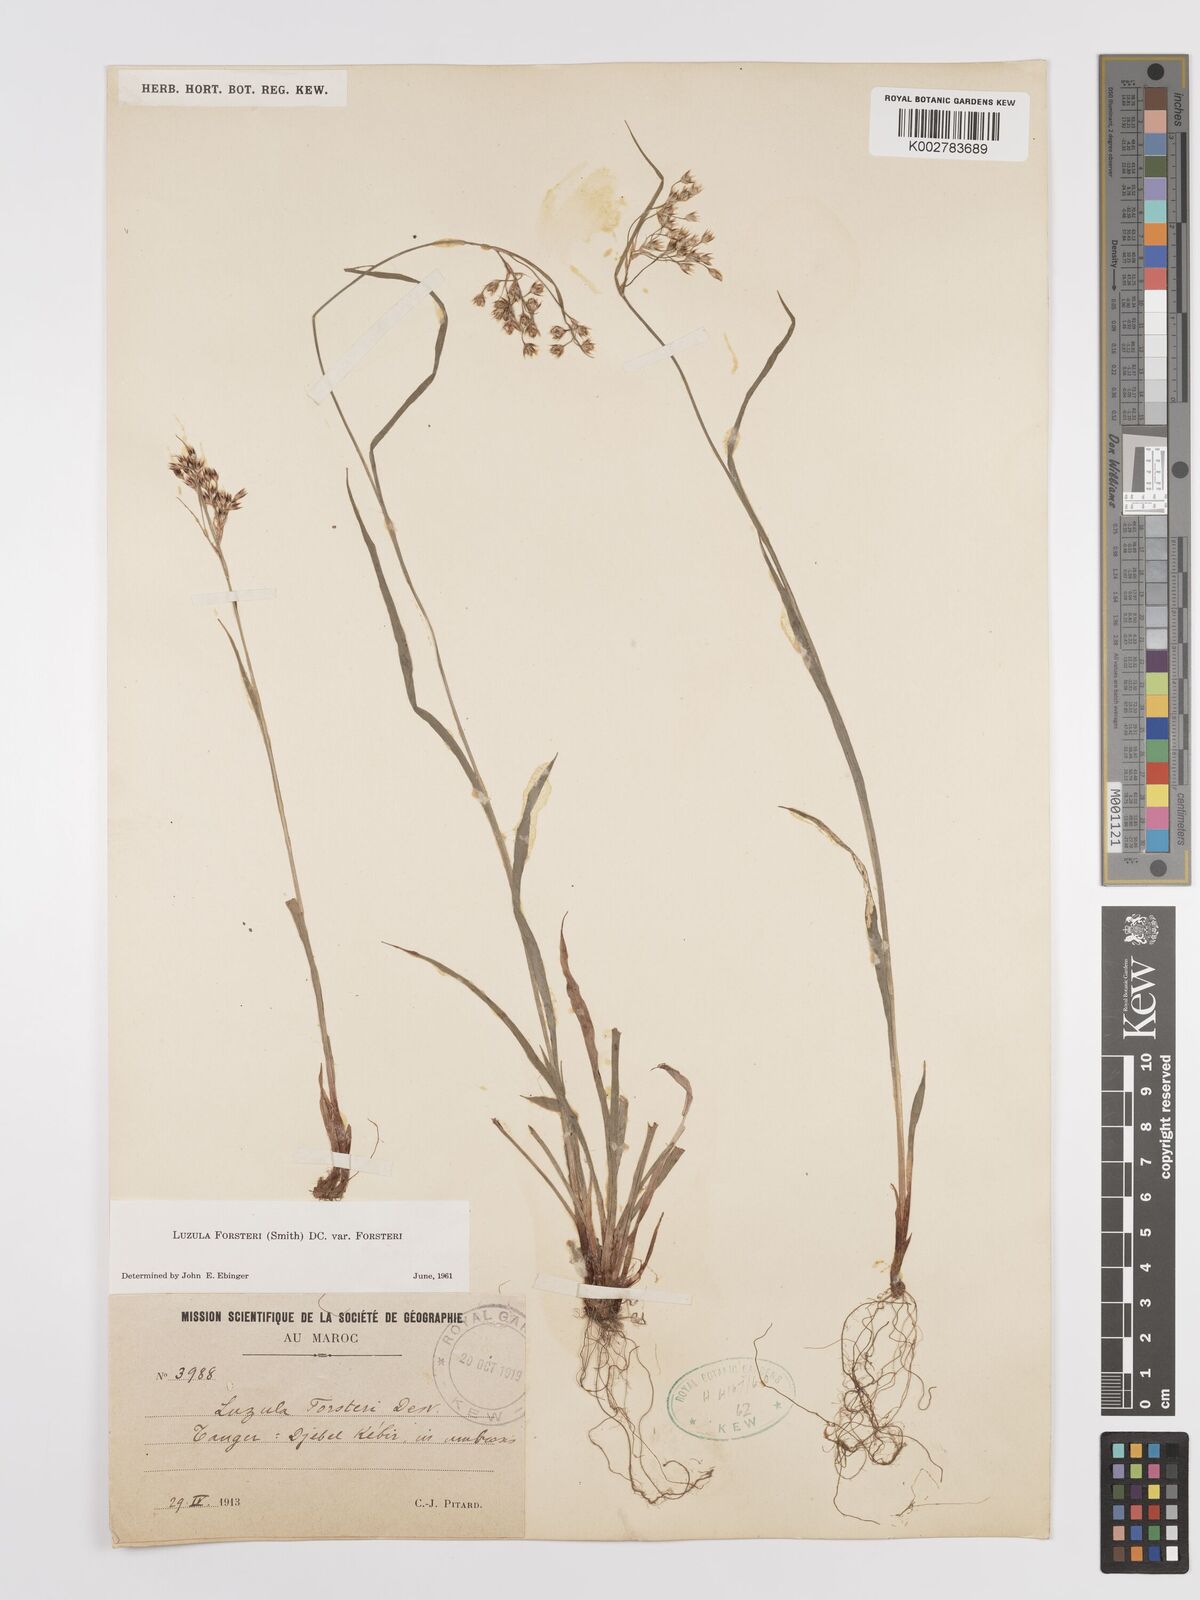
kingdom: Plantae
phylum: Tracheophyta
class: Liliopsida
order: Poales
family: Juncaceae
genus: Luzula
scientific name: Luzula forsteri
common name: Southern wood-rush
